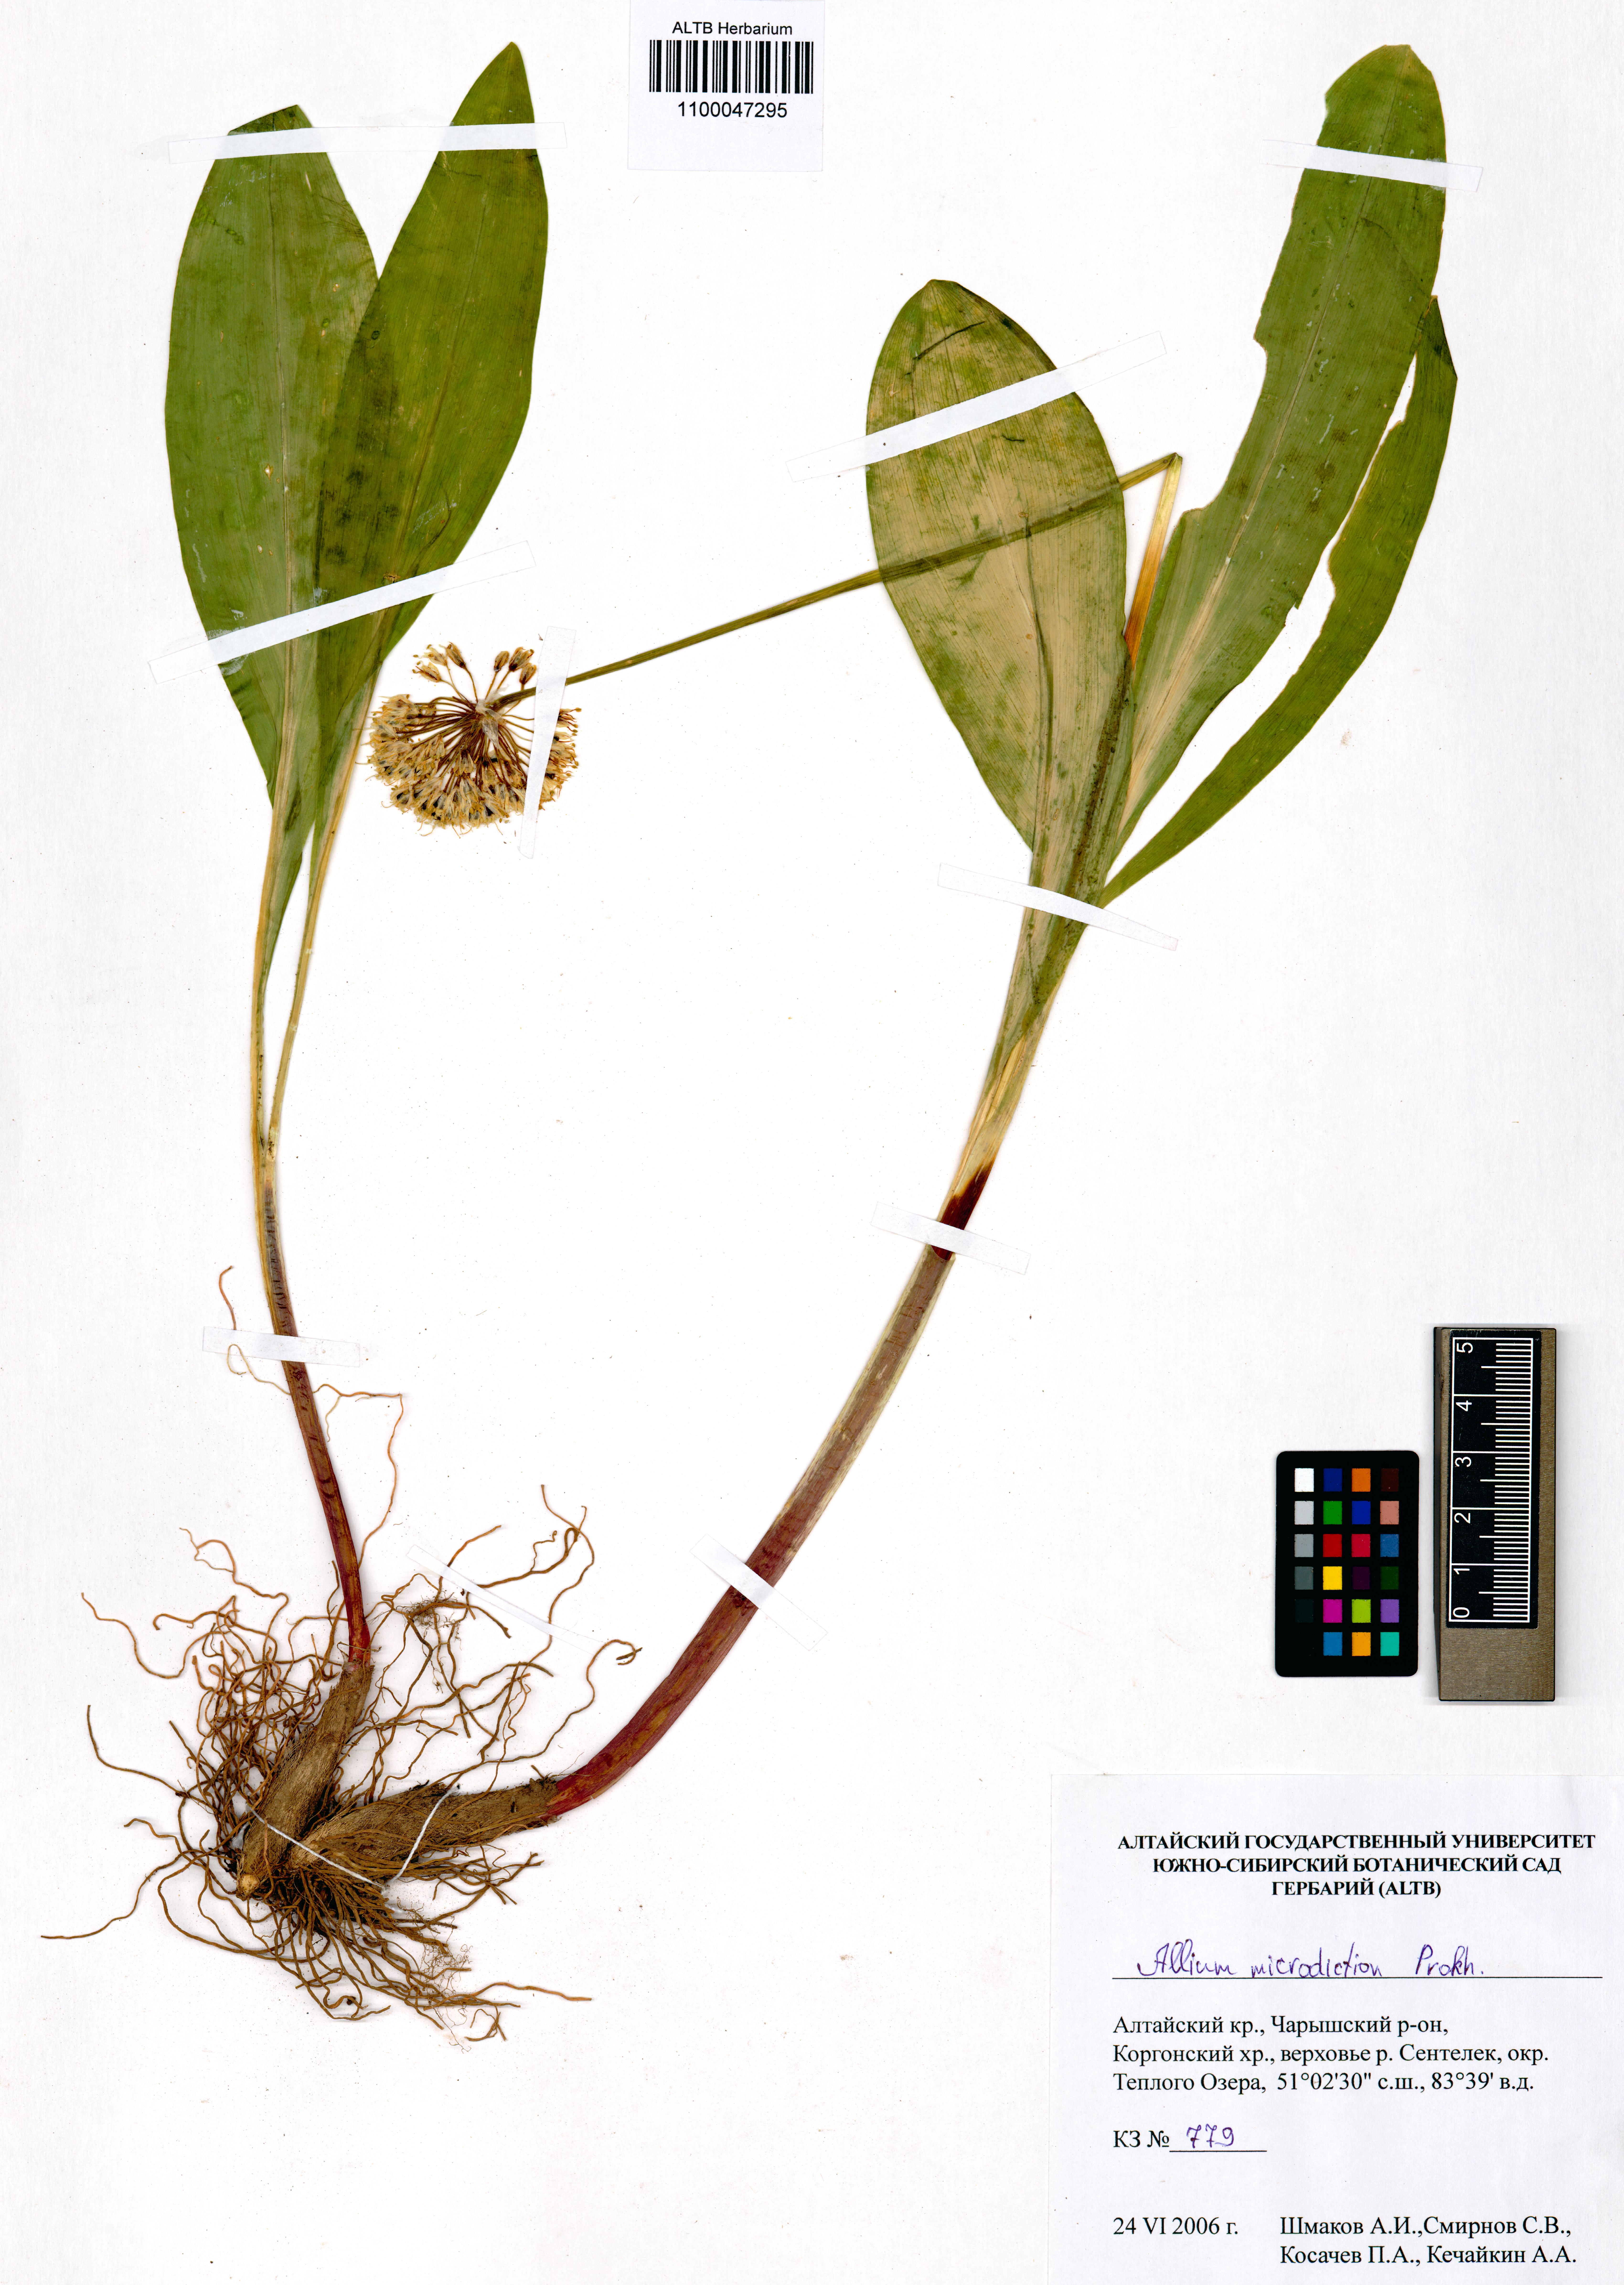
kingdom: Plantae
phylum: Tracheophyta
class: Liliopsida
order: Asparagales
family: Amaryllidaceae
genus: Allium
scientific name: Allium microdictyon
